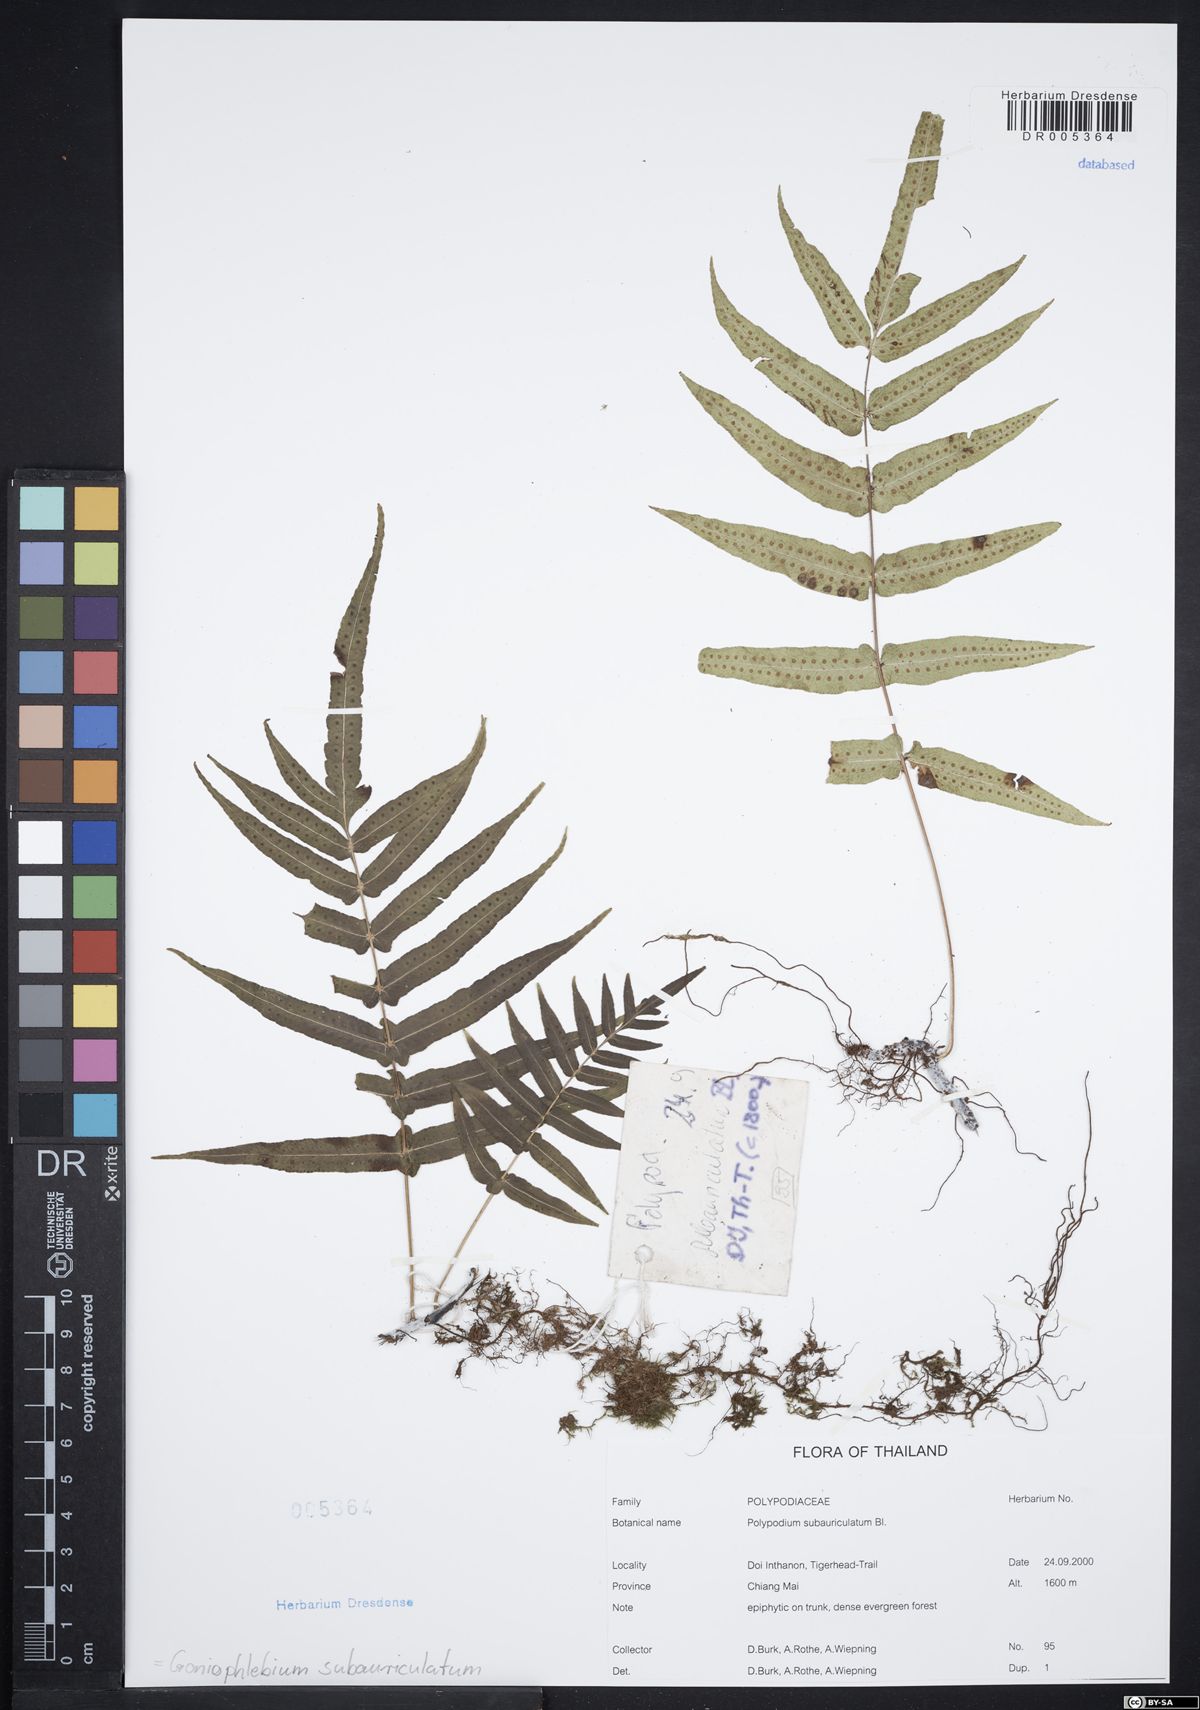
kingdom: Plantae
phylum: Tracheophyta
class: Polypodiopsida
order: Polypodiales
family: Polypodiaceae
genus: Goniophlebium
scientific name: Goniophlebium subauriculatum
